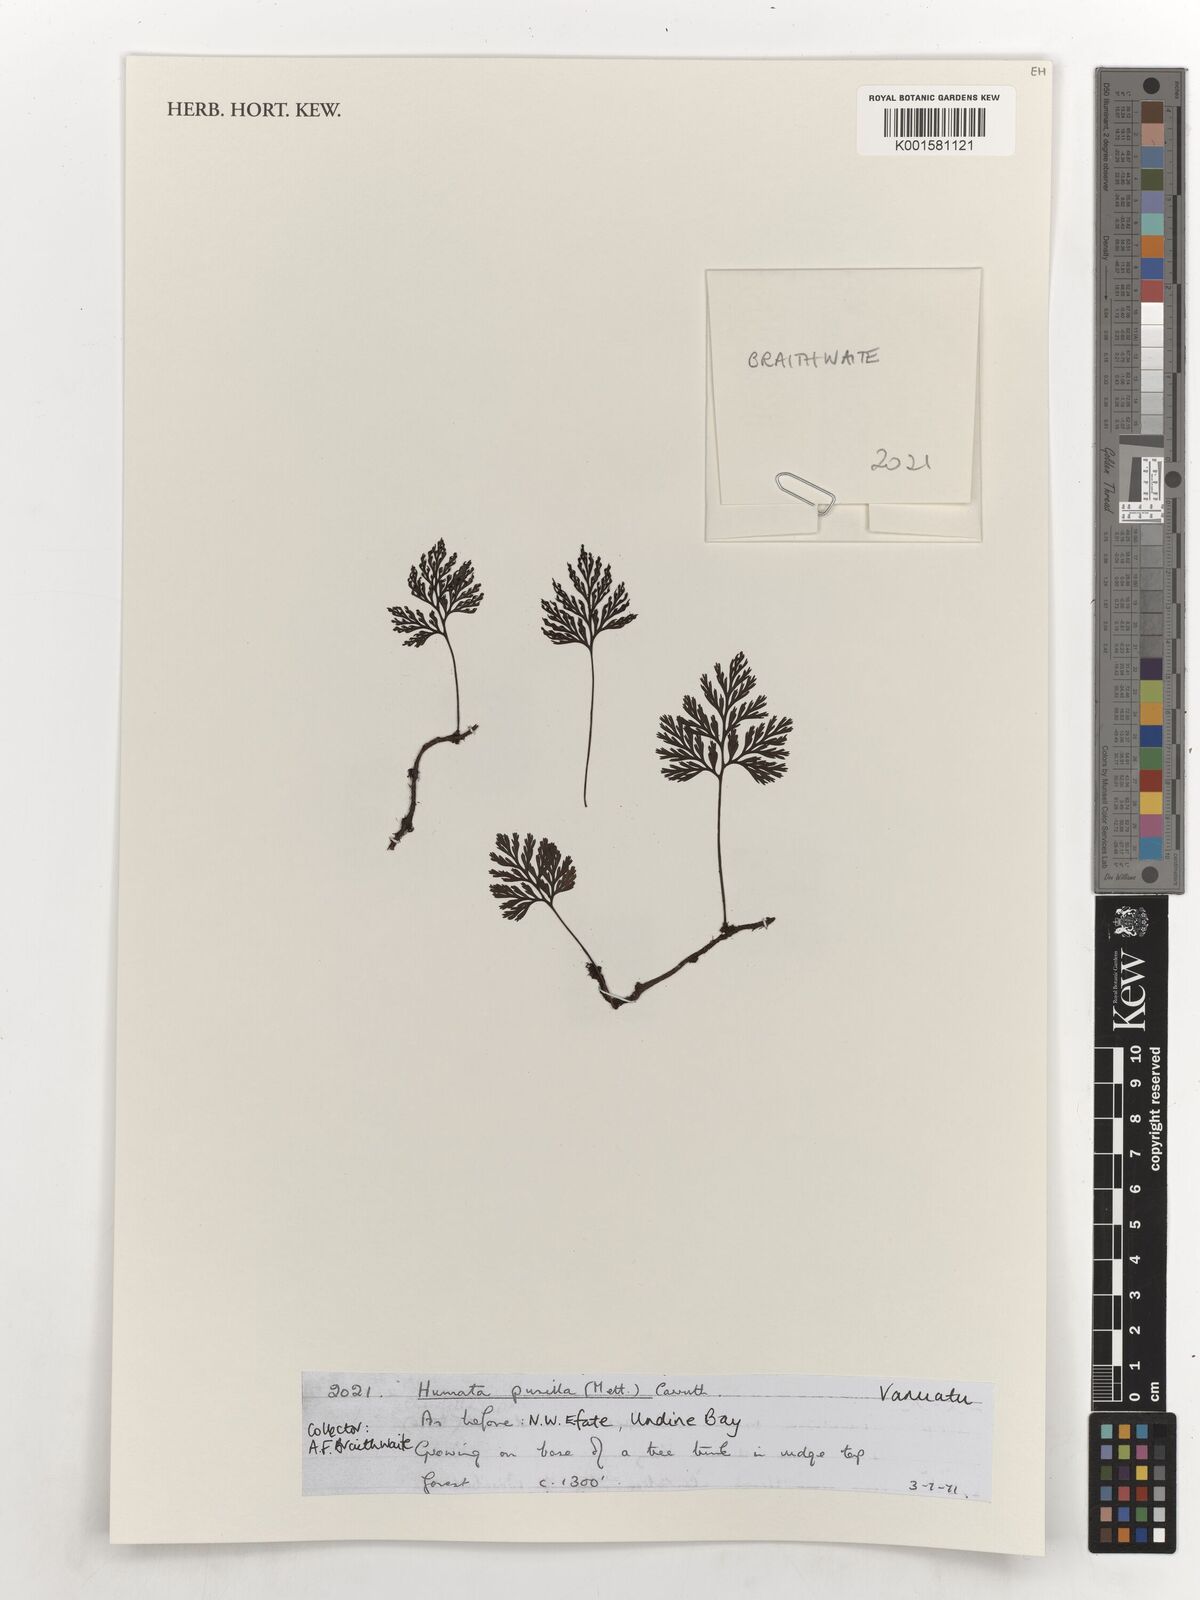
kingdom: Plantae
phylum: Tracheophyta
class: Polypodiopsida
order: Polypodiales
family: Davalliaceae
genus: Davallia
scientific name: Davallia pusilla
